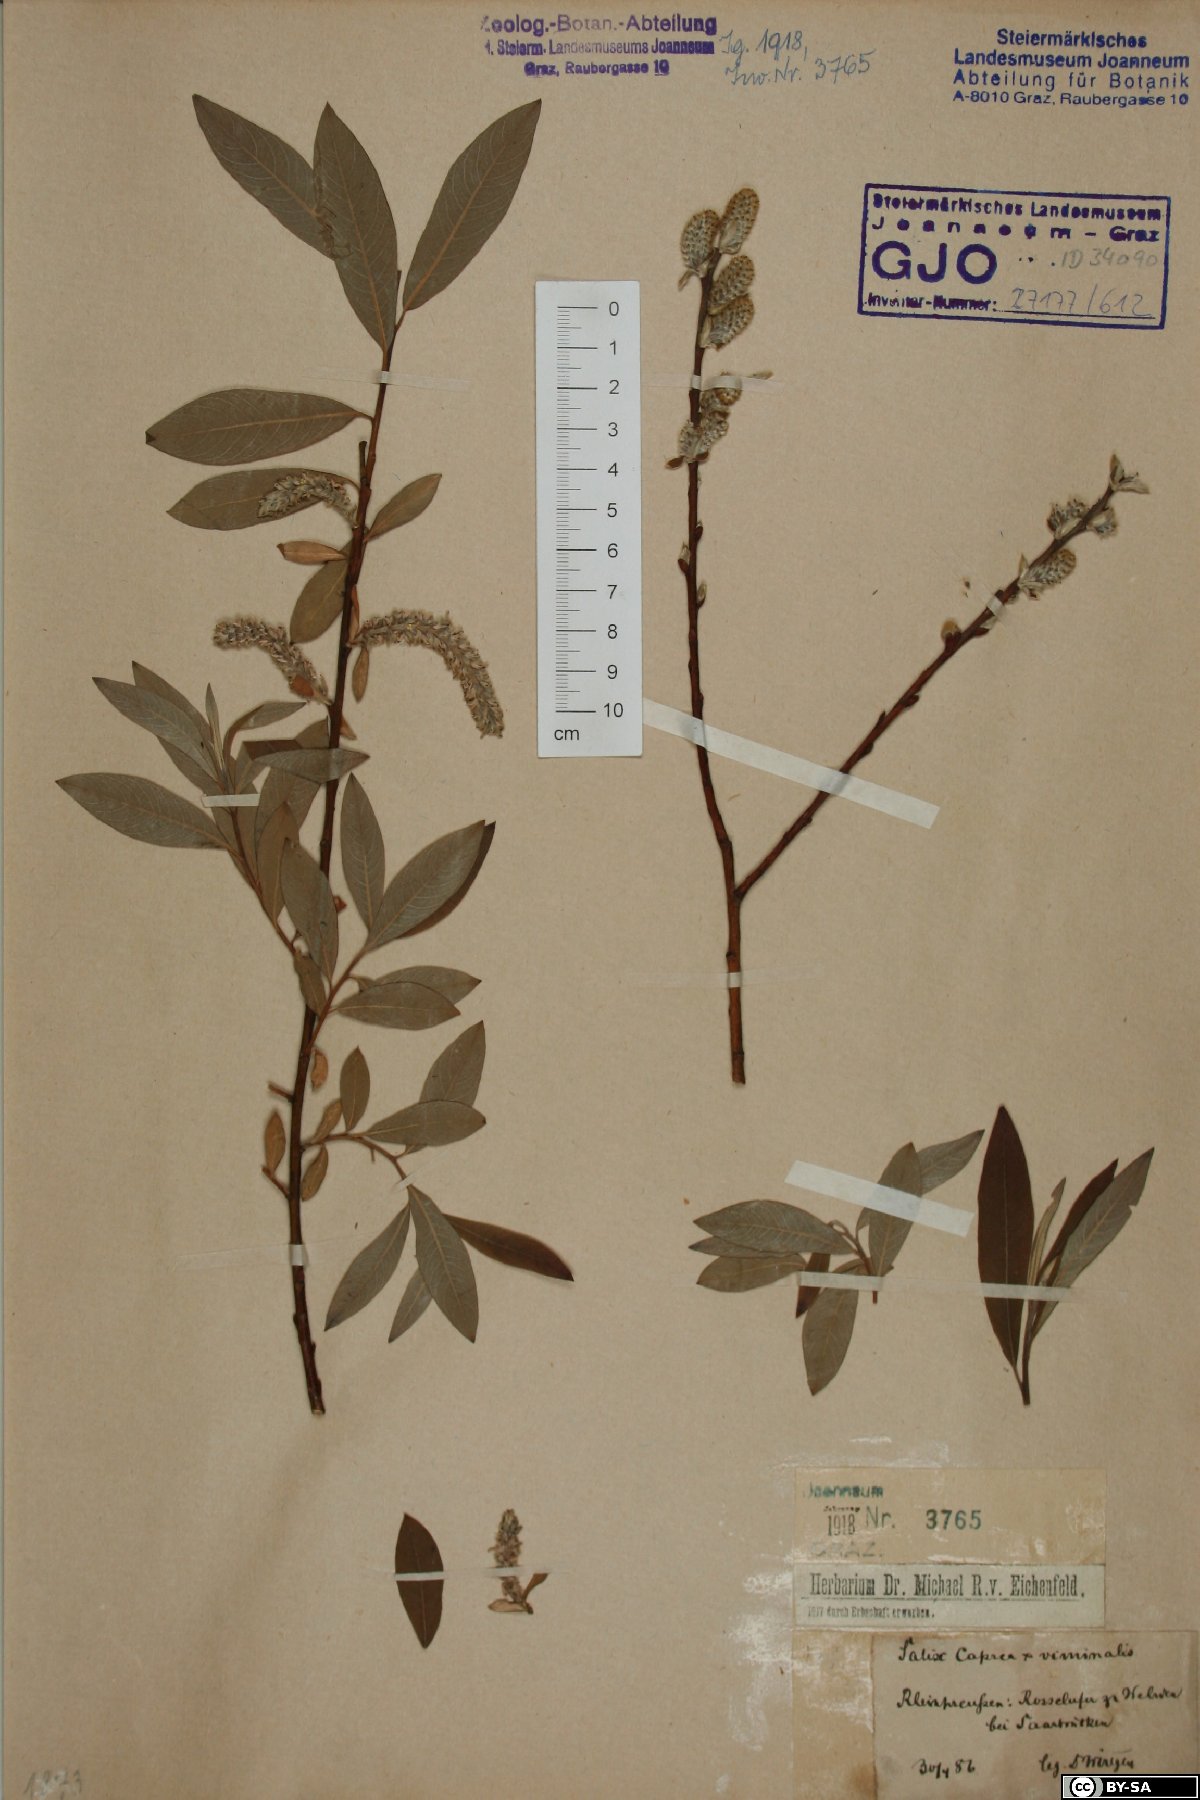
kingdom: Plantae
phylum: Tracheophyta
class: Magnoliopsida
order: Malpighiales
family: Salicaceae
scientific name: Salicaceae
